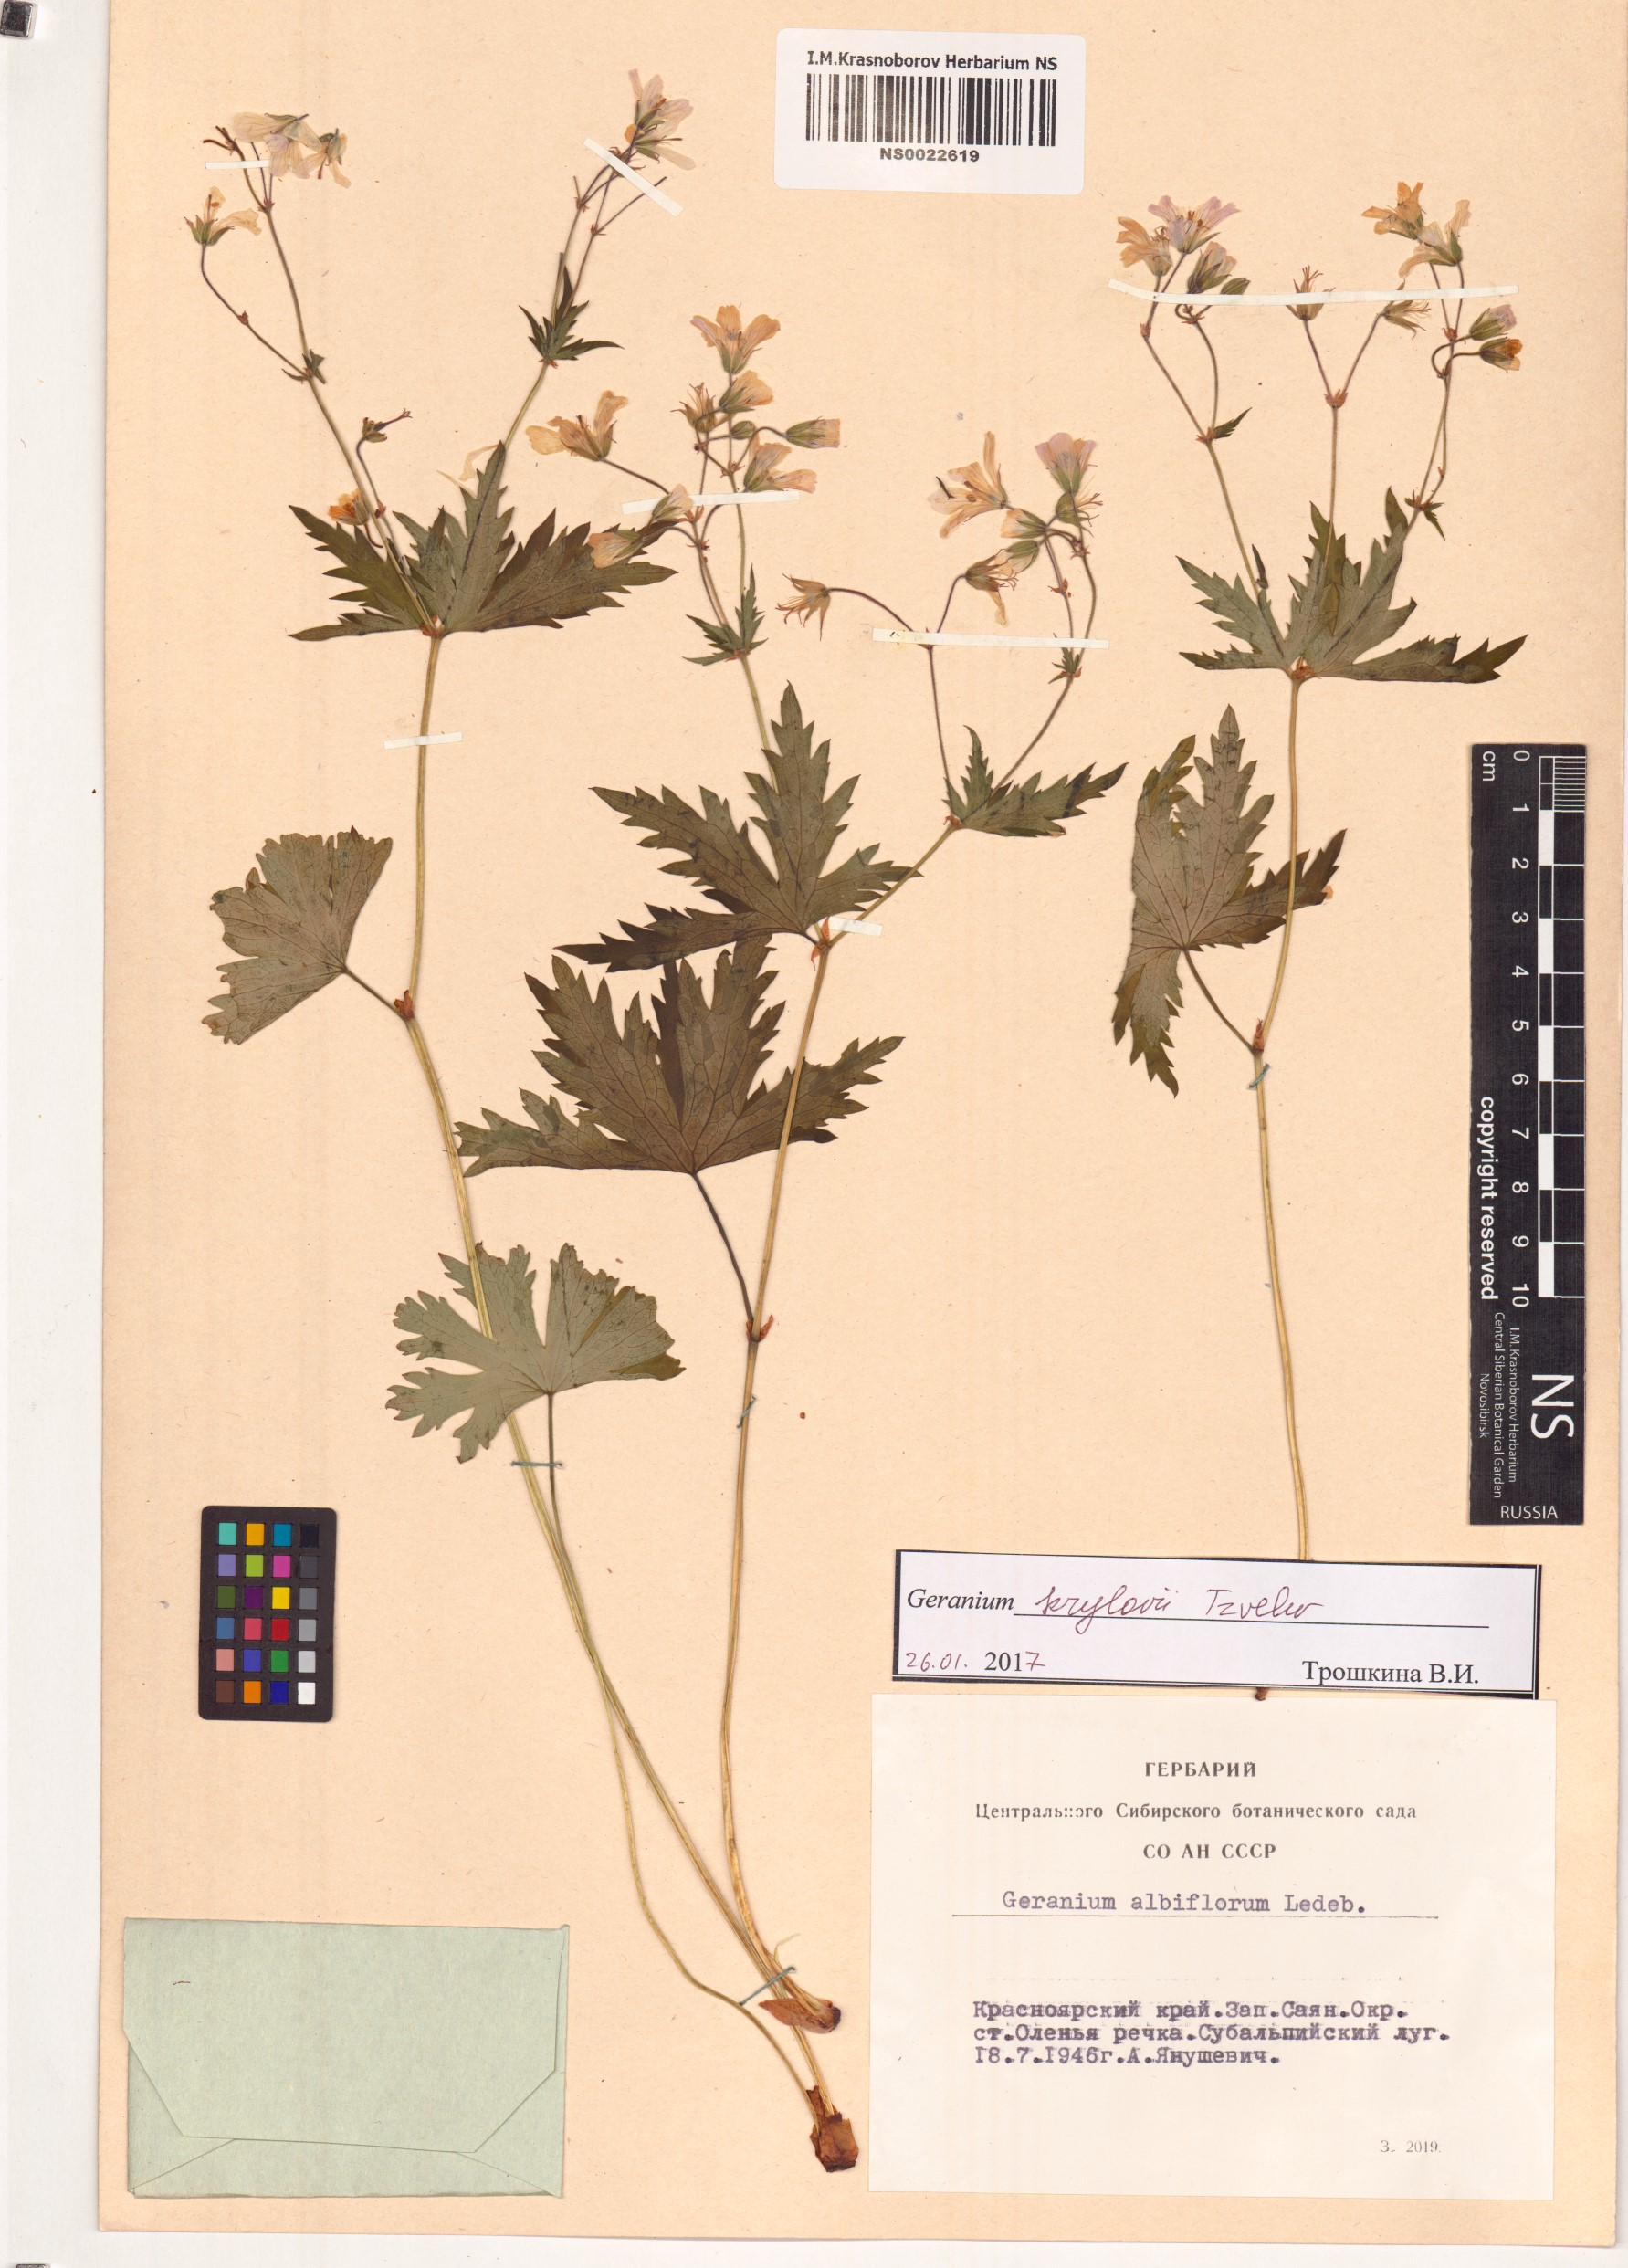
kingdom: Plantae
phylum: Tracheophyta
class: Magnoliopsida
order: Geraniales
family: Geraniaceae
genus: Geranium
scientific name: Geranium sylvaticum
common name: Wood crane's-bill
